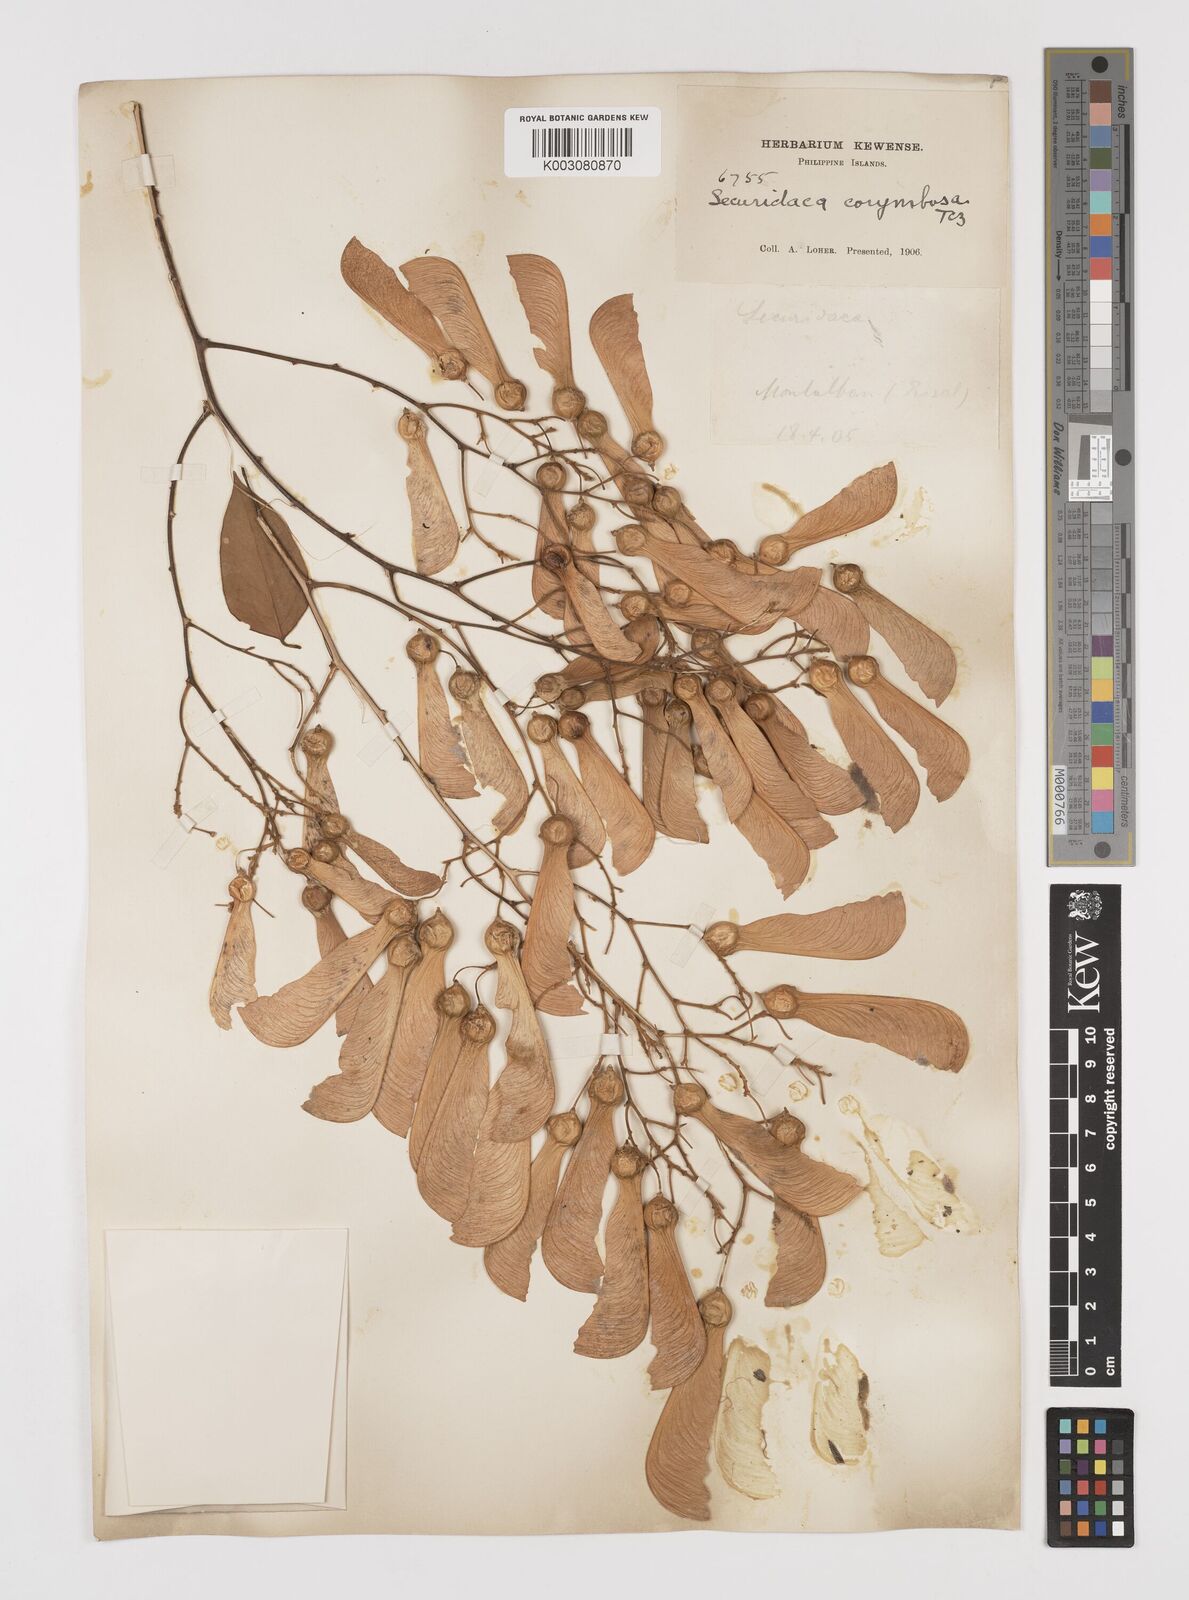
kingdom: Plantae
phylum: Tracheophyta
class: Magnoliopsida
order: Fabales
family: Polygalaceae
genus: Securidaca
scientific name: Securidaca inappendiculata
